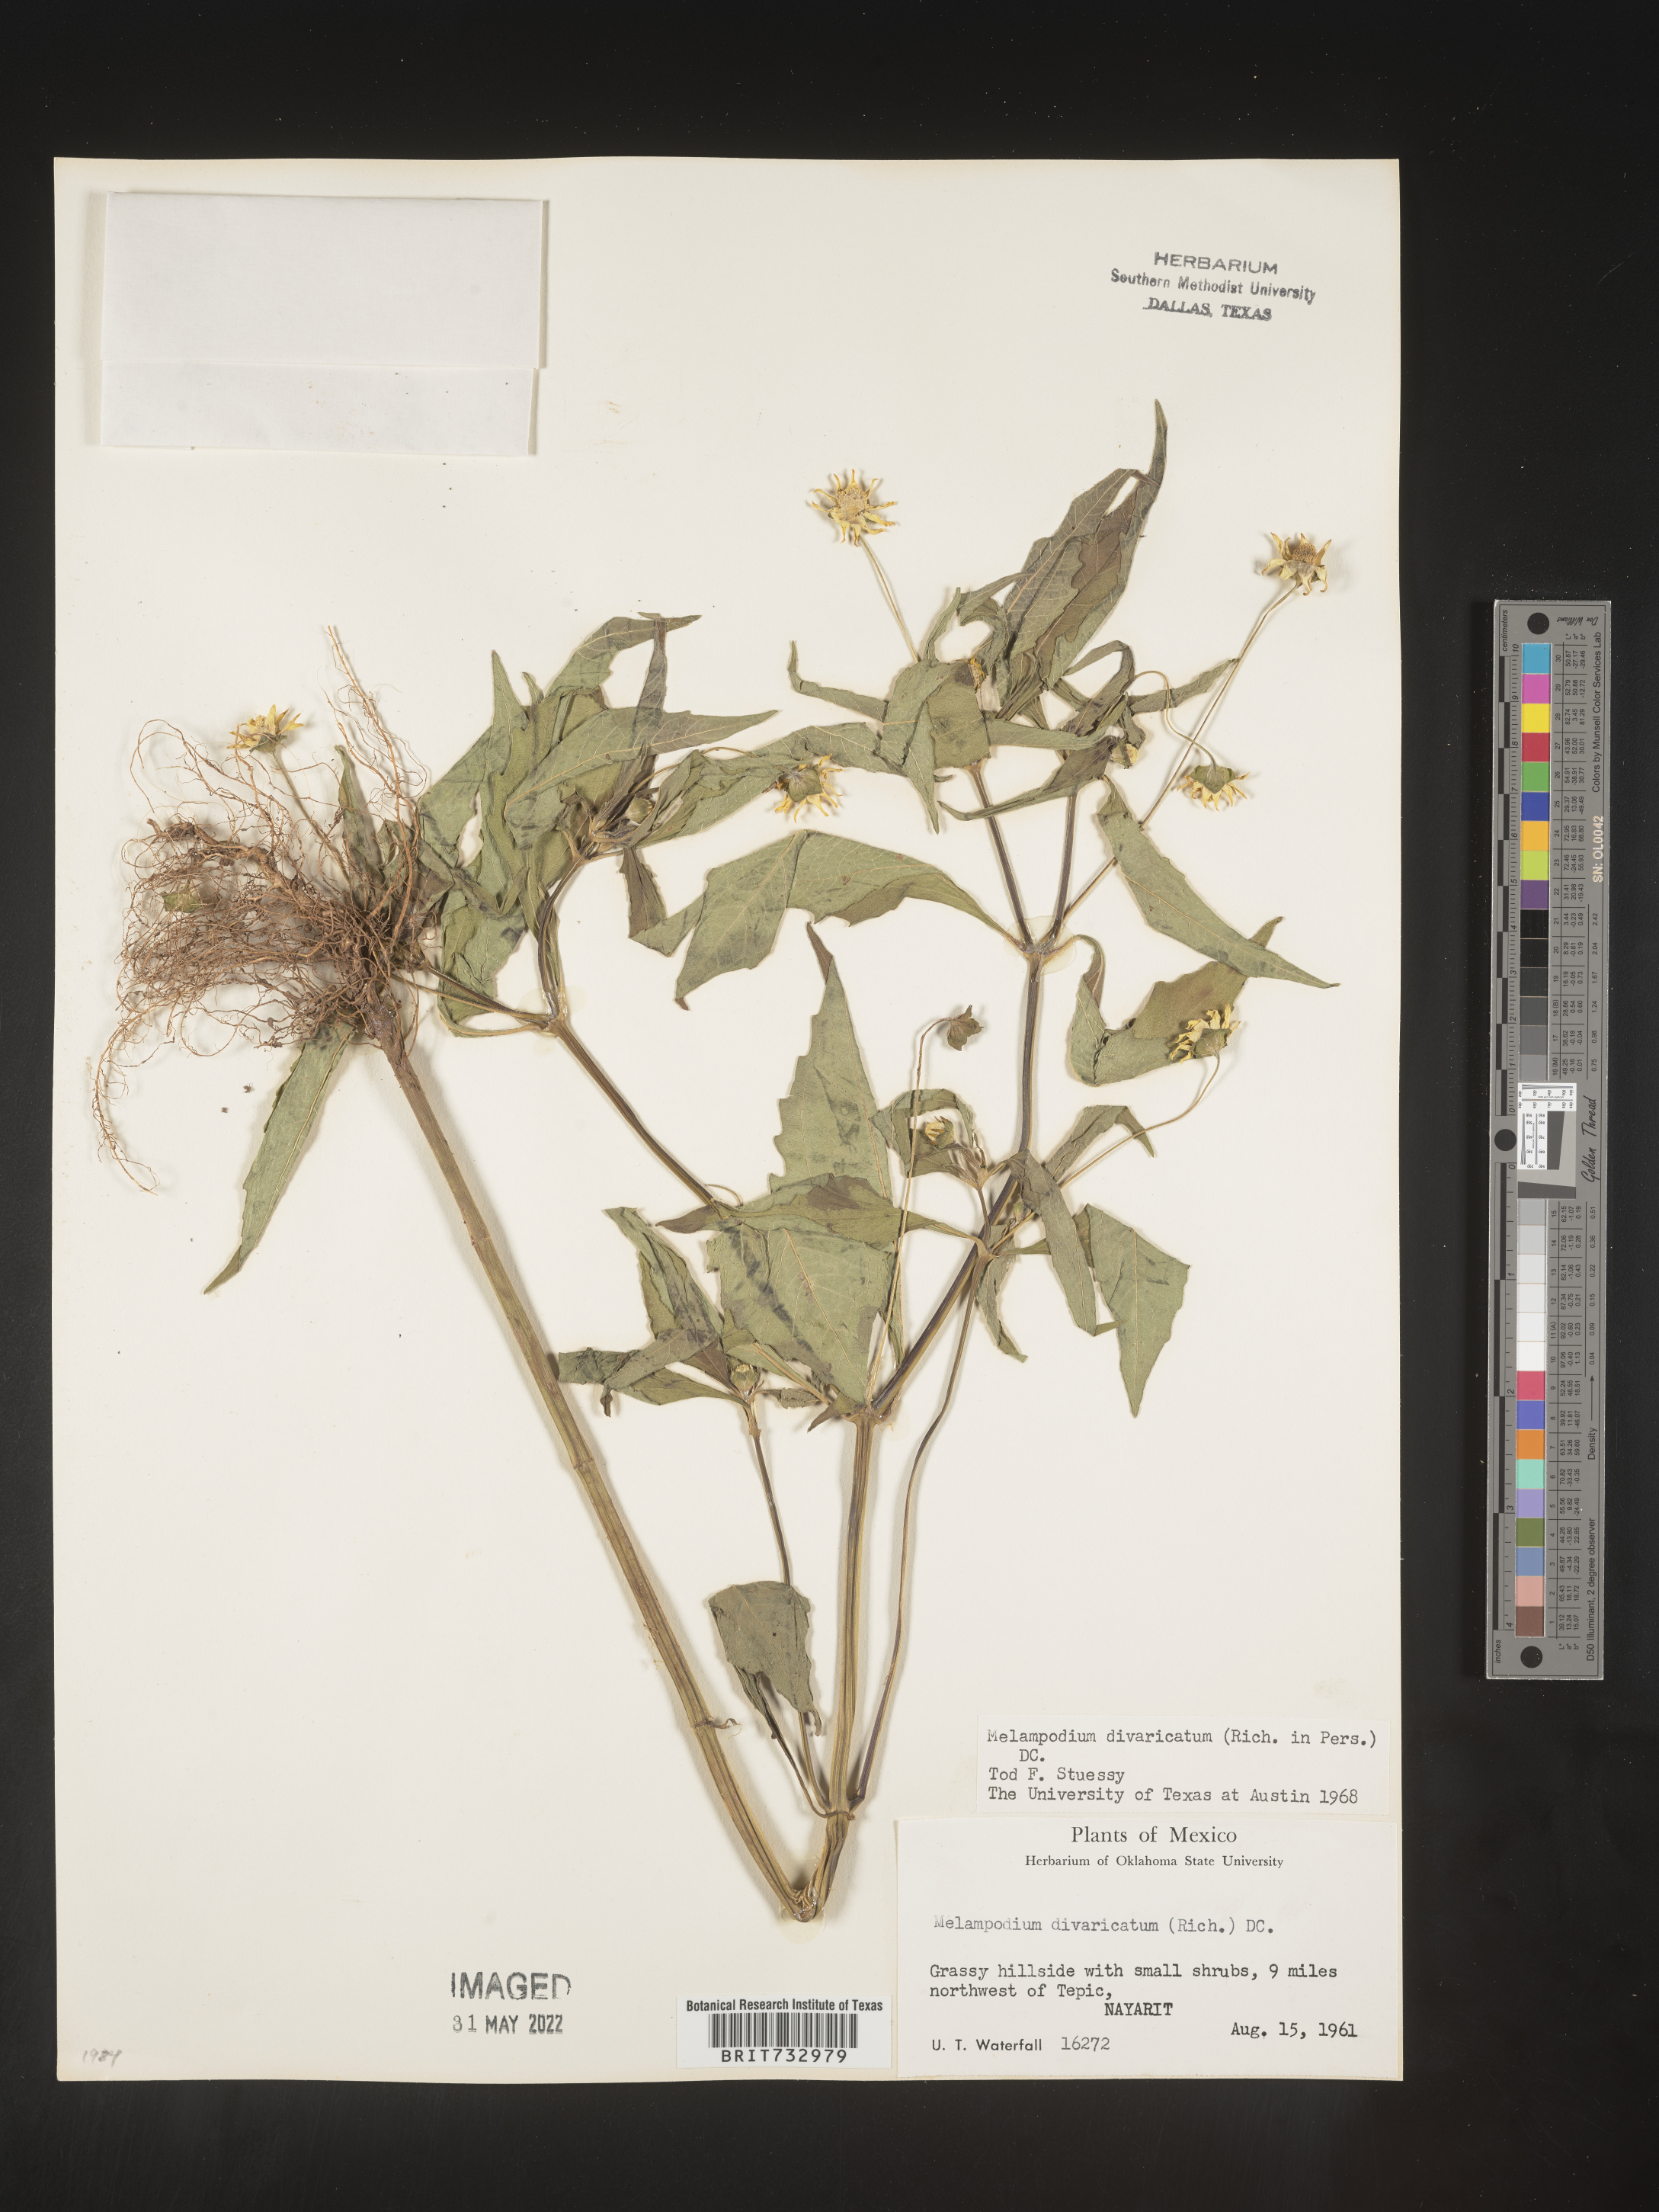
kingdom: Plantae
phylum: Tracheophyta
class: Magnoliopsida
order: Asterales
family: Asteraceae
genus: Melampodium
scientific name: Melampodium
